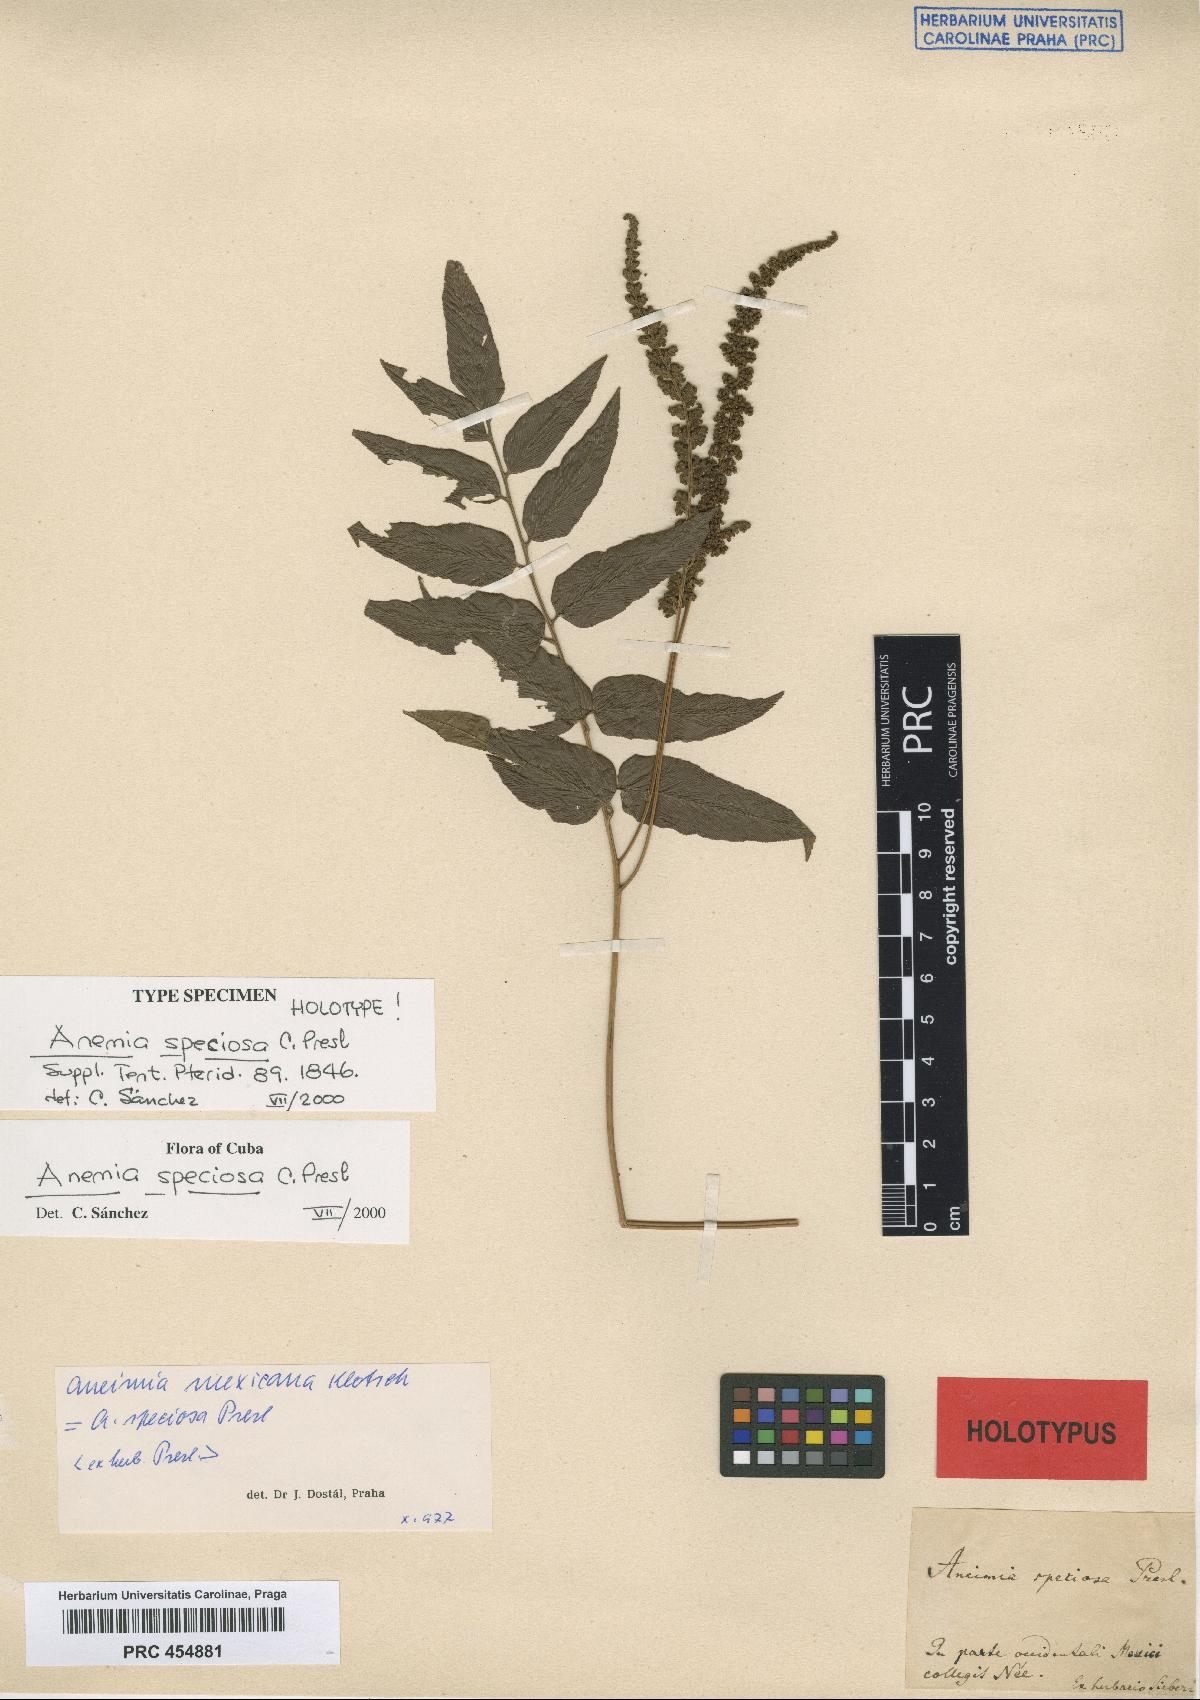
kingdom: Plantae
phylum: Tracheophyta
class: Polypodiopsida
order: Schizaeales
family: Anemiaceae
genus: Anemia
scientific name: Anemia speciosa
